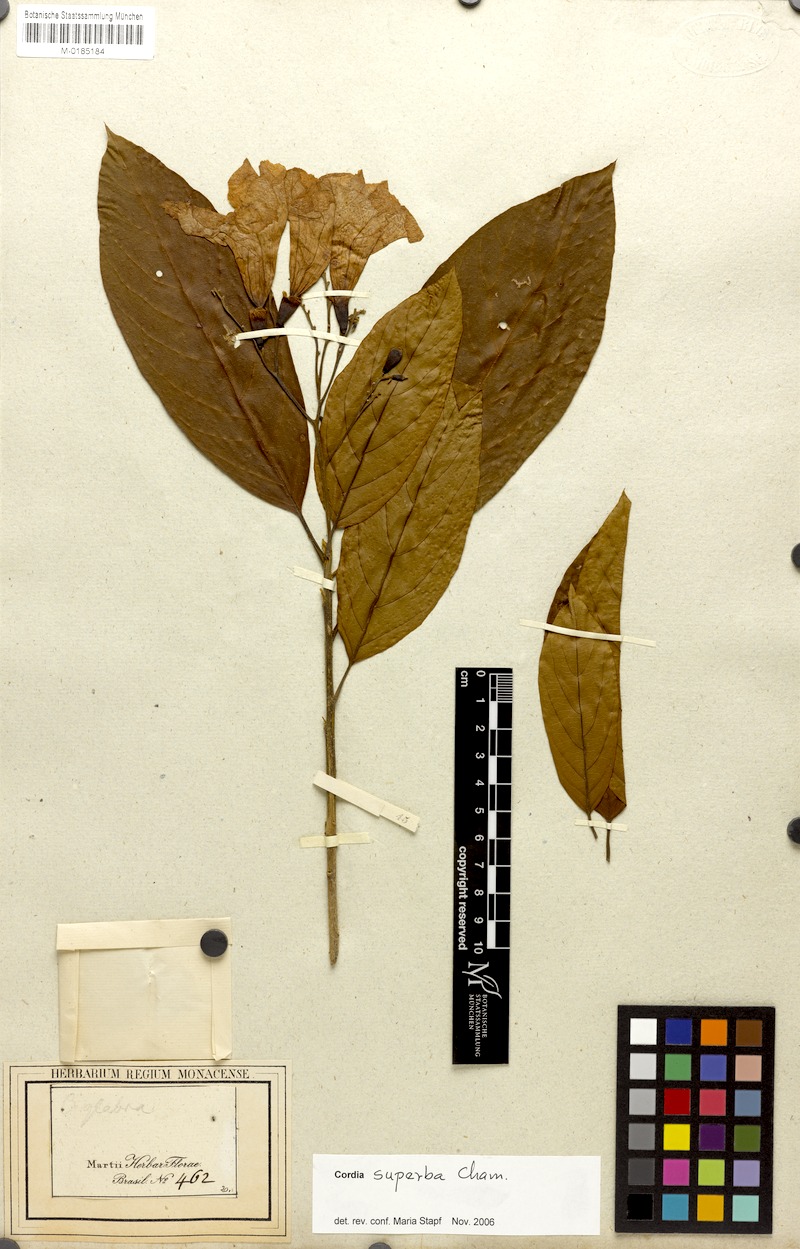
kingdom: Plantae
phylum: Tracheophyta
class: Magnoliopsida
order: Boraginales
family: Cordiaceae
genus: Cordia
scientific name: Cordia superba
